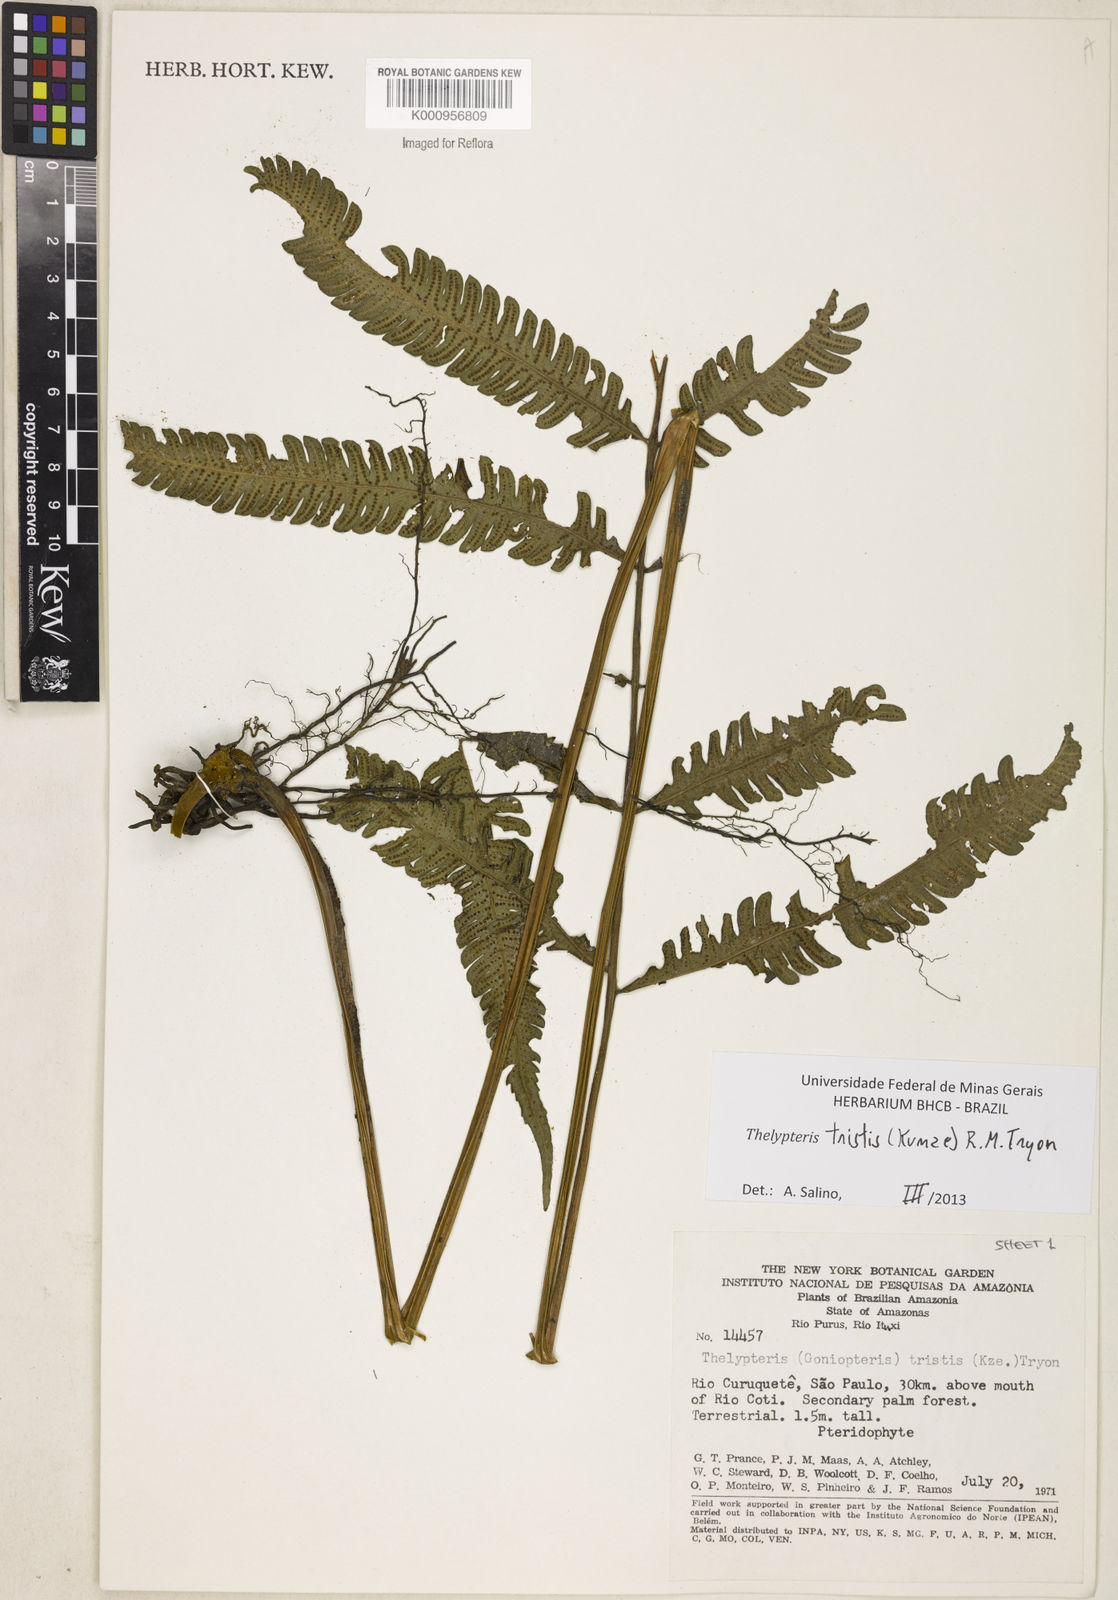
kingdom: Plantae
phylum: Tracheophyta
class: Polypodiopsida
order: Polypodiales
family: Thelypteridaceae
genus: Goniopteris
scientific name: Goniopteris tristis
